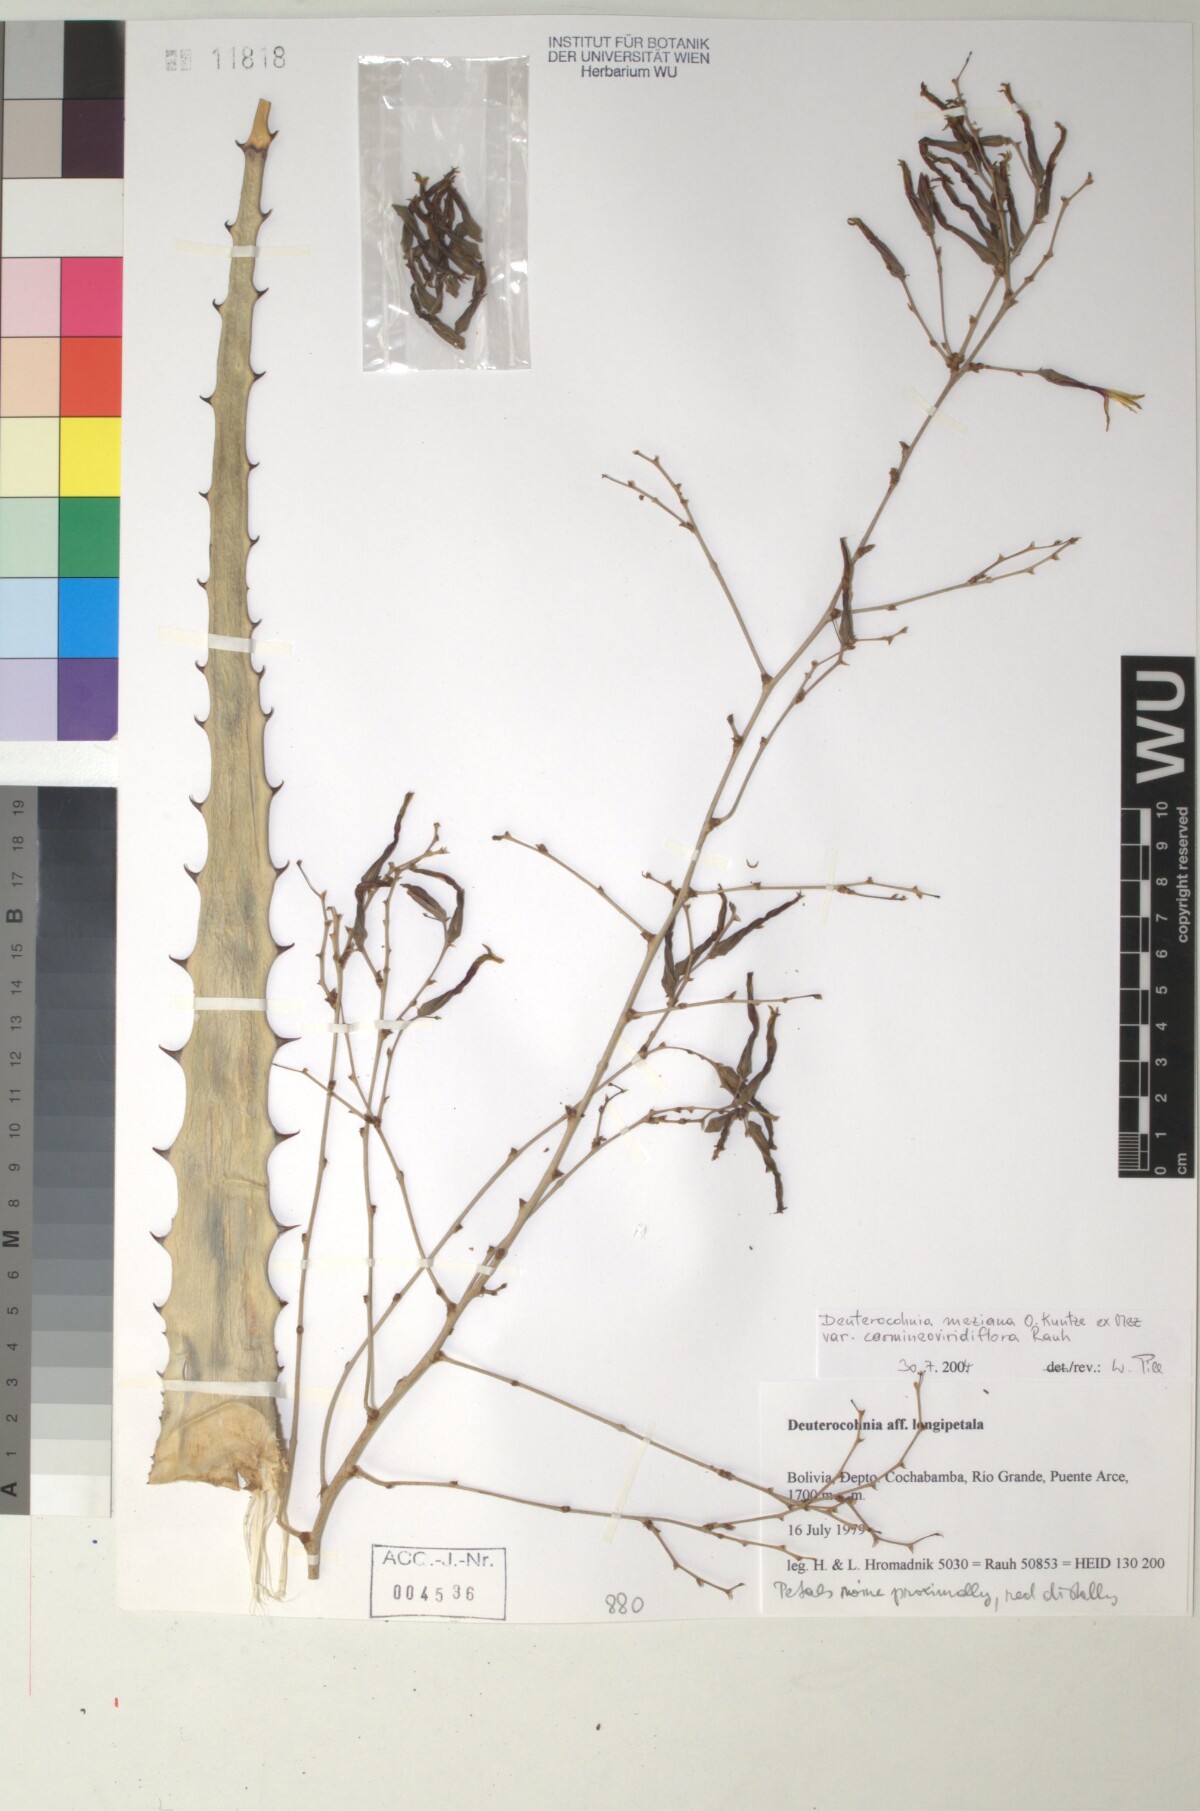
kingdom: Plantae
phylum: Tracheophyta
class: Liliopsida
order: Poales
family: Bromeliaceae
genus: Deuterocohnia
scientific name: Deuterocohnia meziana
